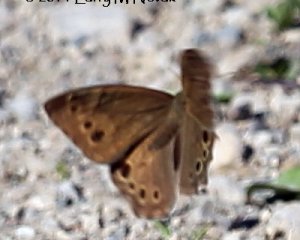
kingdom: Animalia
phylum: Arthropoda
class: Insecta
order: Lepidoptera
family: Nymphalidae
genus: Lethe
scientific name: Lethe anthedon
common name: Northern Pearly-Eye
